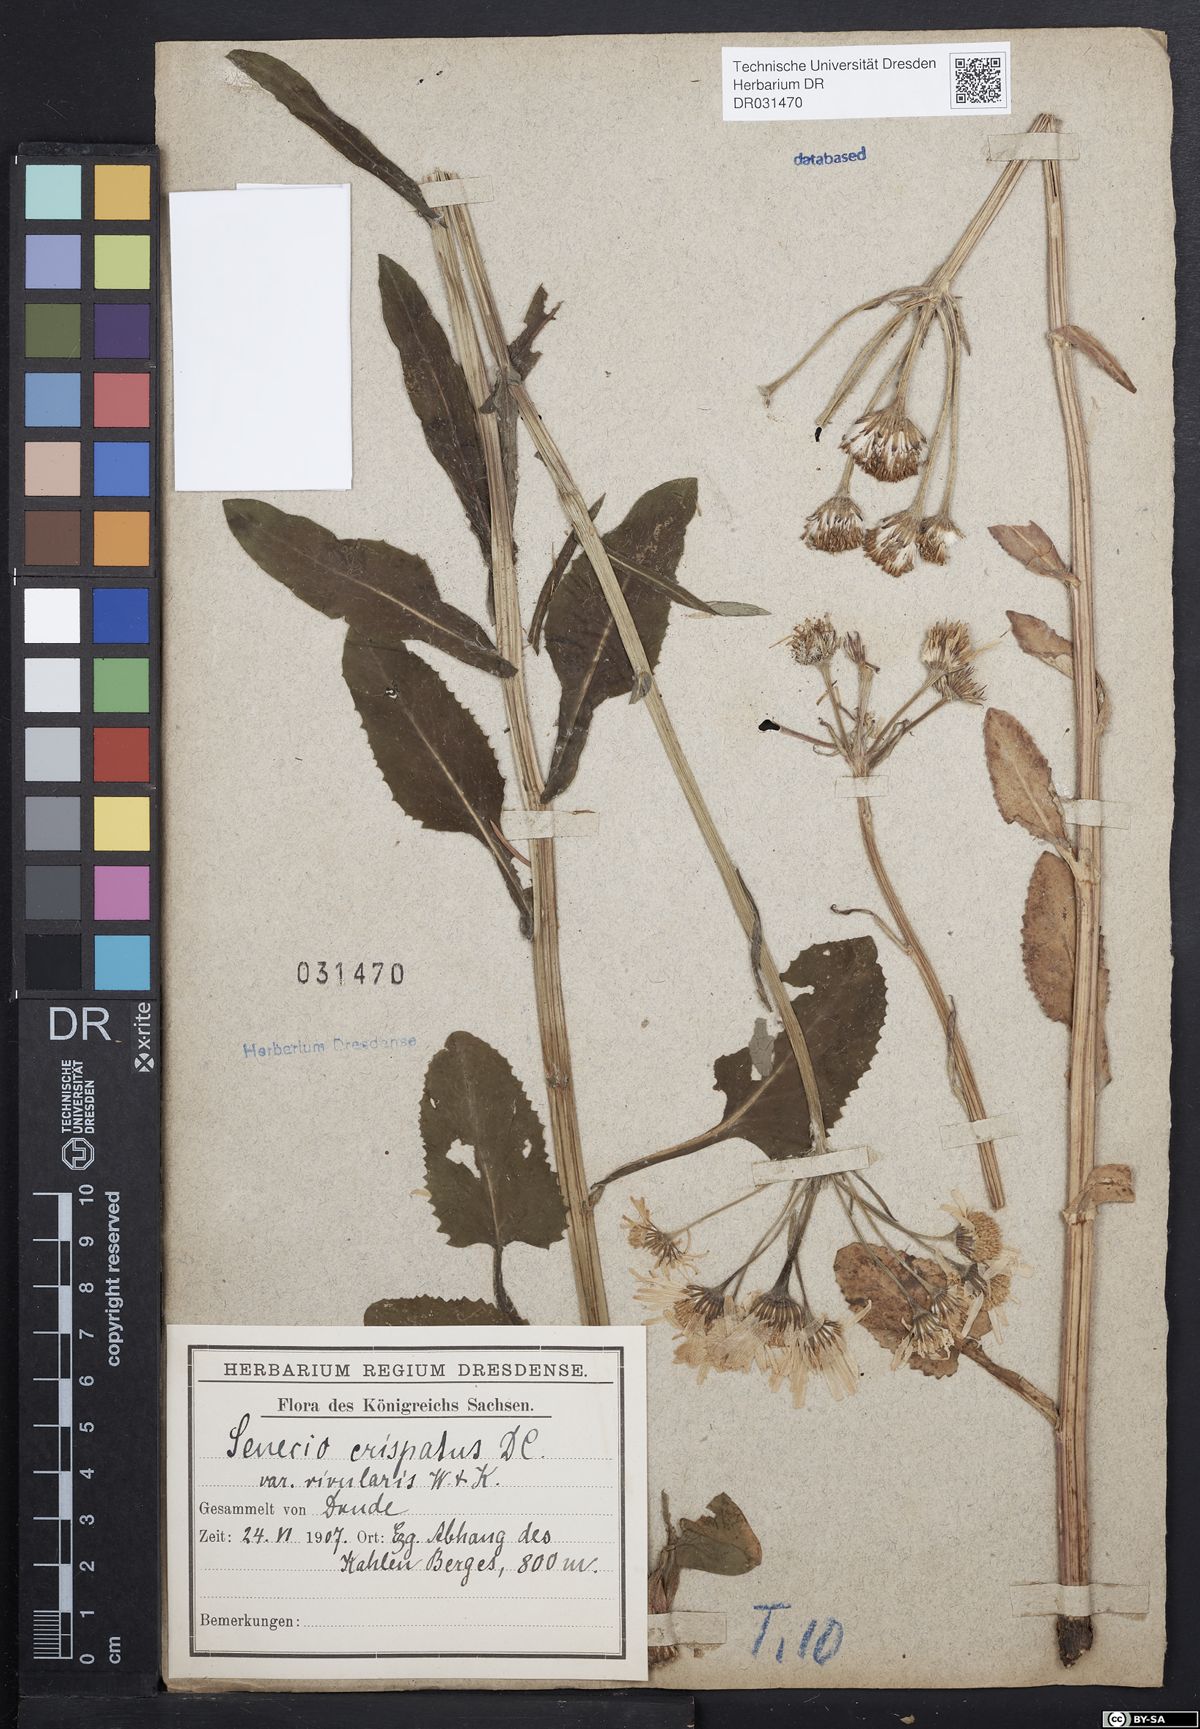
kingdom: Plantae
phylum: Tracheophyta
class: Magnoliopsida
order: Asterales
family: Asteraceae
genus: Tephroseris
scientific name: Tephroseris crispa
